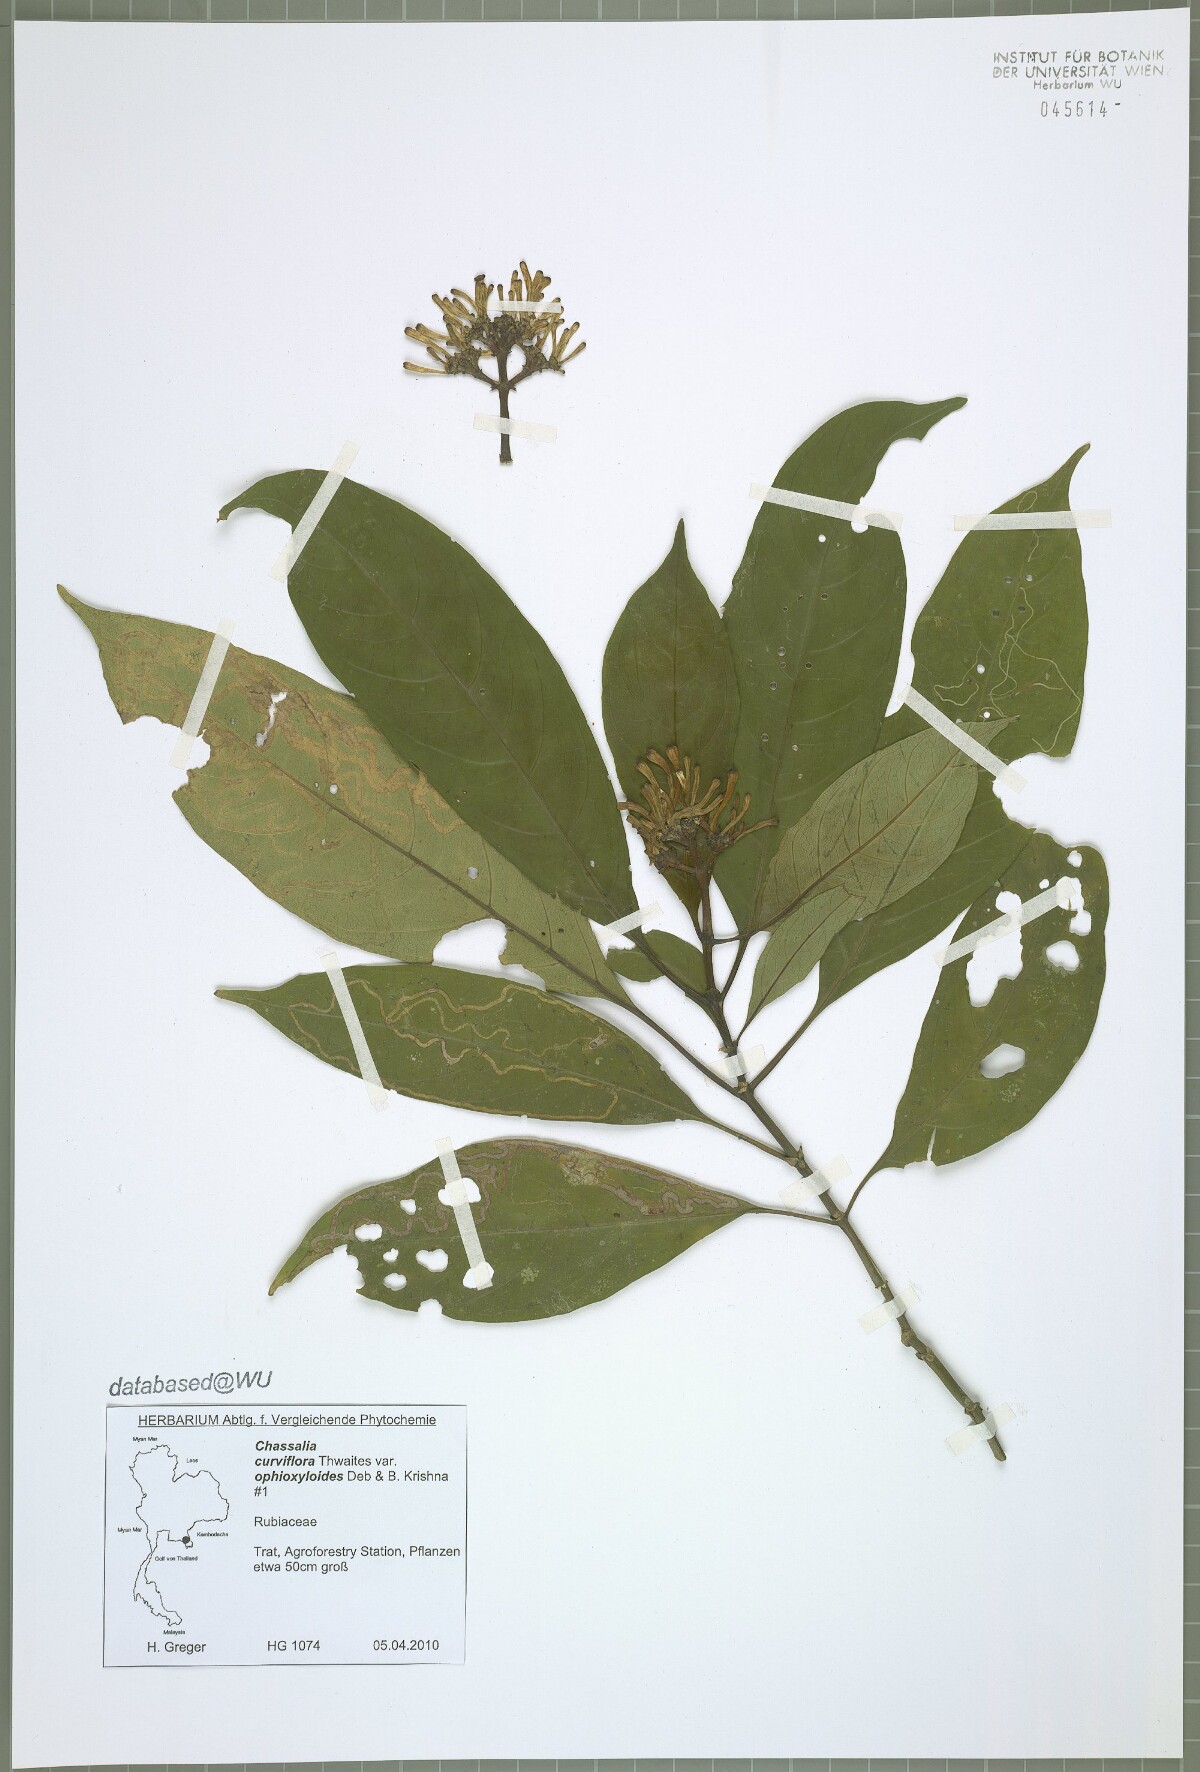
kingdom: Plantae
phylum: Tracheophyta
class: Magnoliopsida
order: Gentianales
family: Rubiaceae
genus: Chassalia
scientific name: Chassalia curviflora
